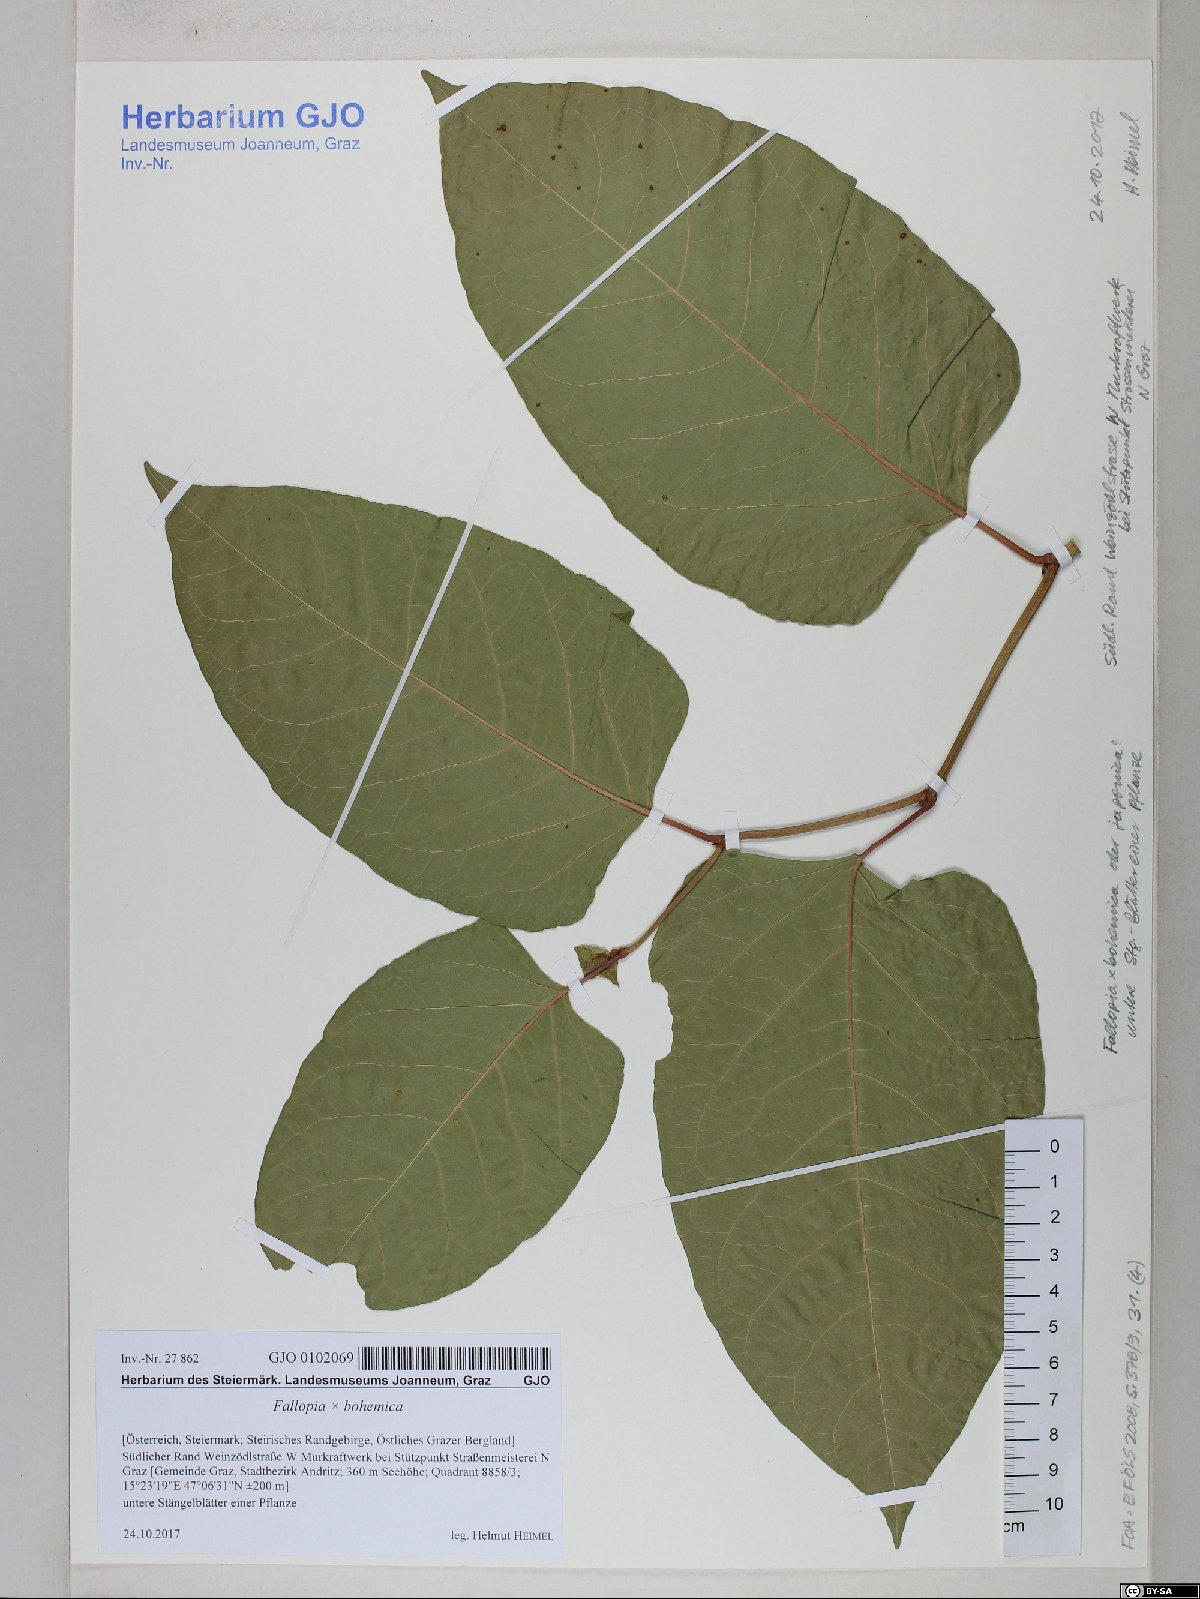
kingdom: Plantae
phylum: Tracheophyta
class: Magnoliopsida
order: Caryophyllales
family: Polygonaceae
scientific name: Polygonaceae
